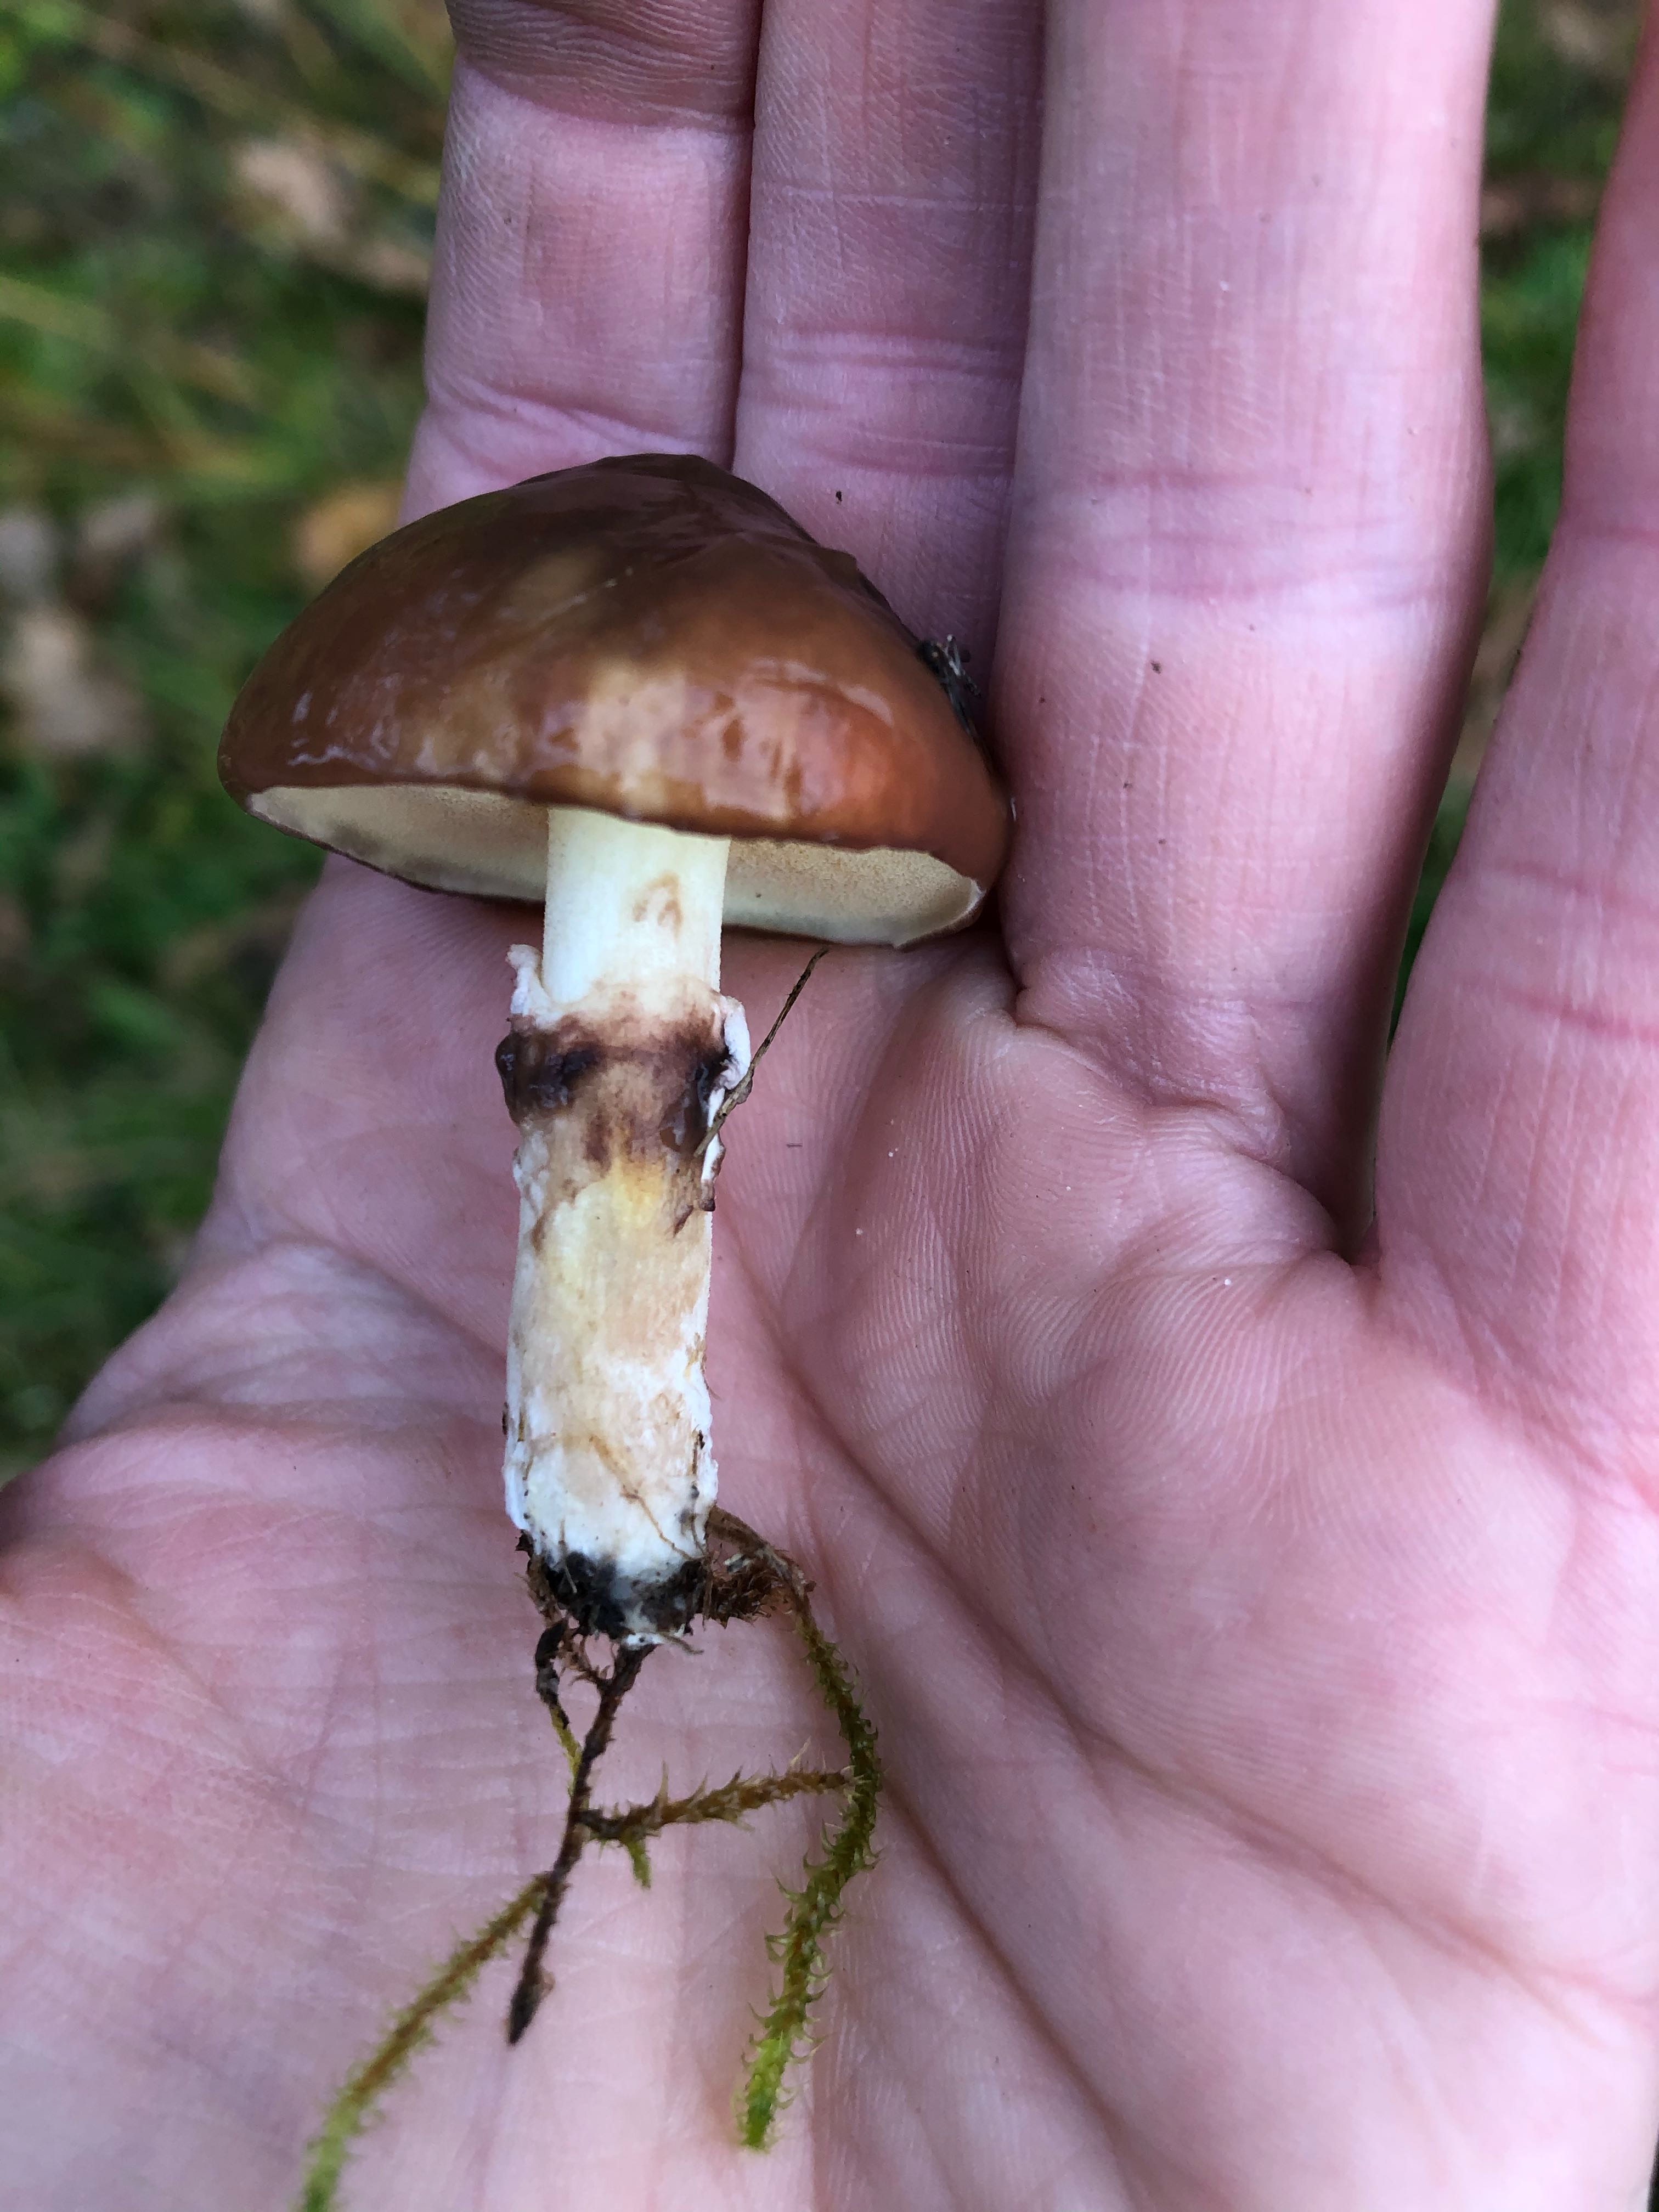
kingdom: Fungi
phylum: Basidiomycota
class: Agaricomycetes
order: Boletales
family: Suillaceae
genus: Suillus
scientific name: Suillus luteus
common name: brungul slimrørhat
